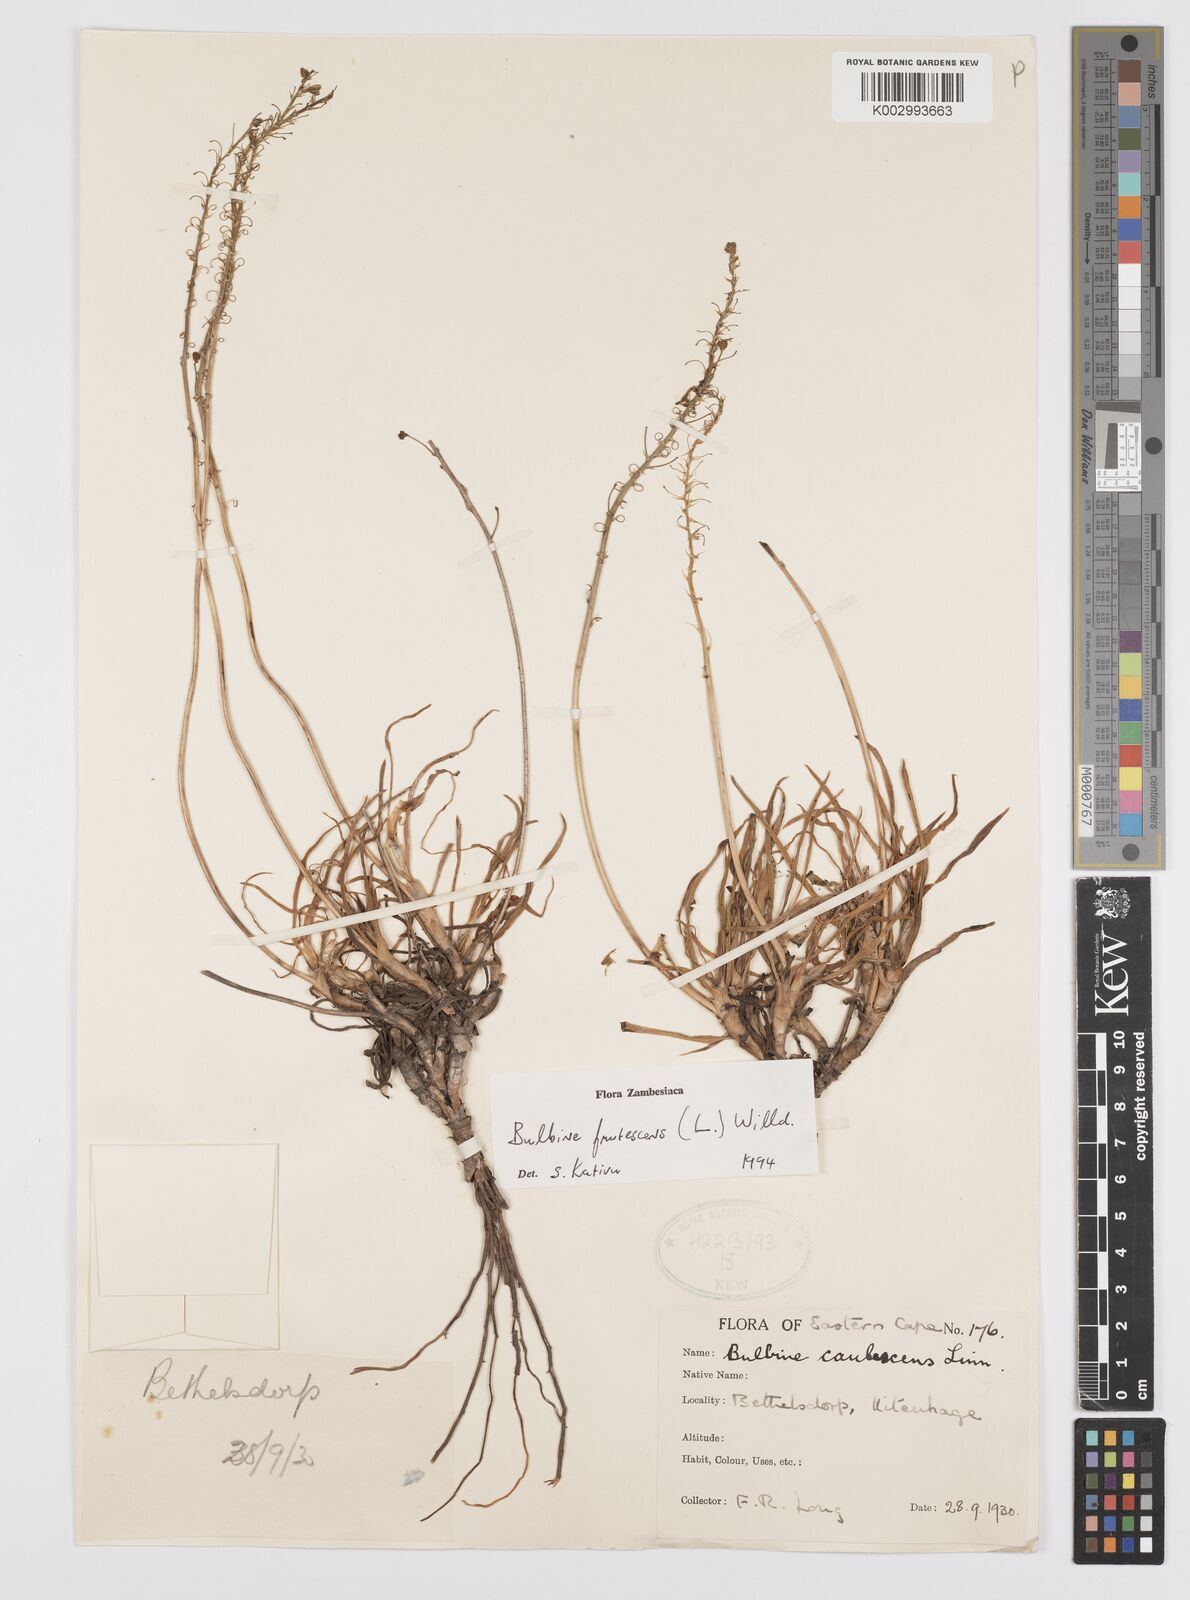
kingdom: Plantae
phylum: Tracheophyta
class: Liliopsida
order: Asparagales
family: Asphodelaceae
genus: Bulbine
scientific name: Bulbine frutescens
